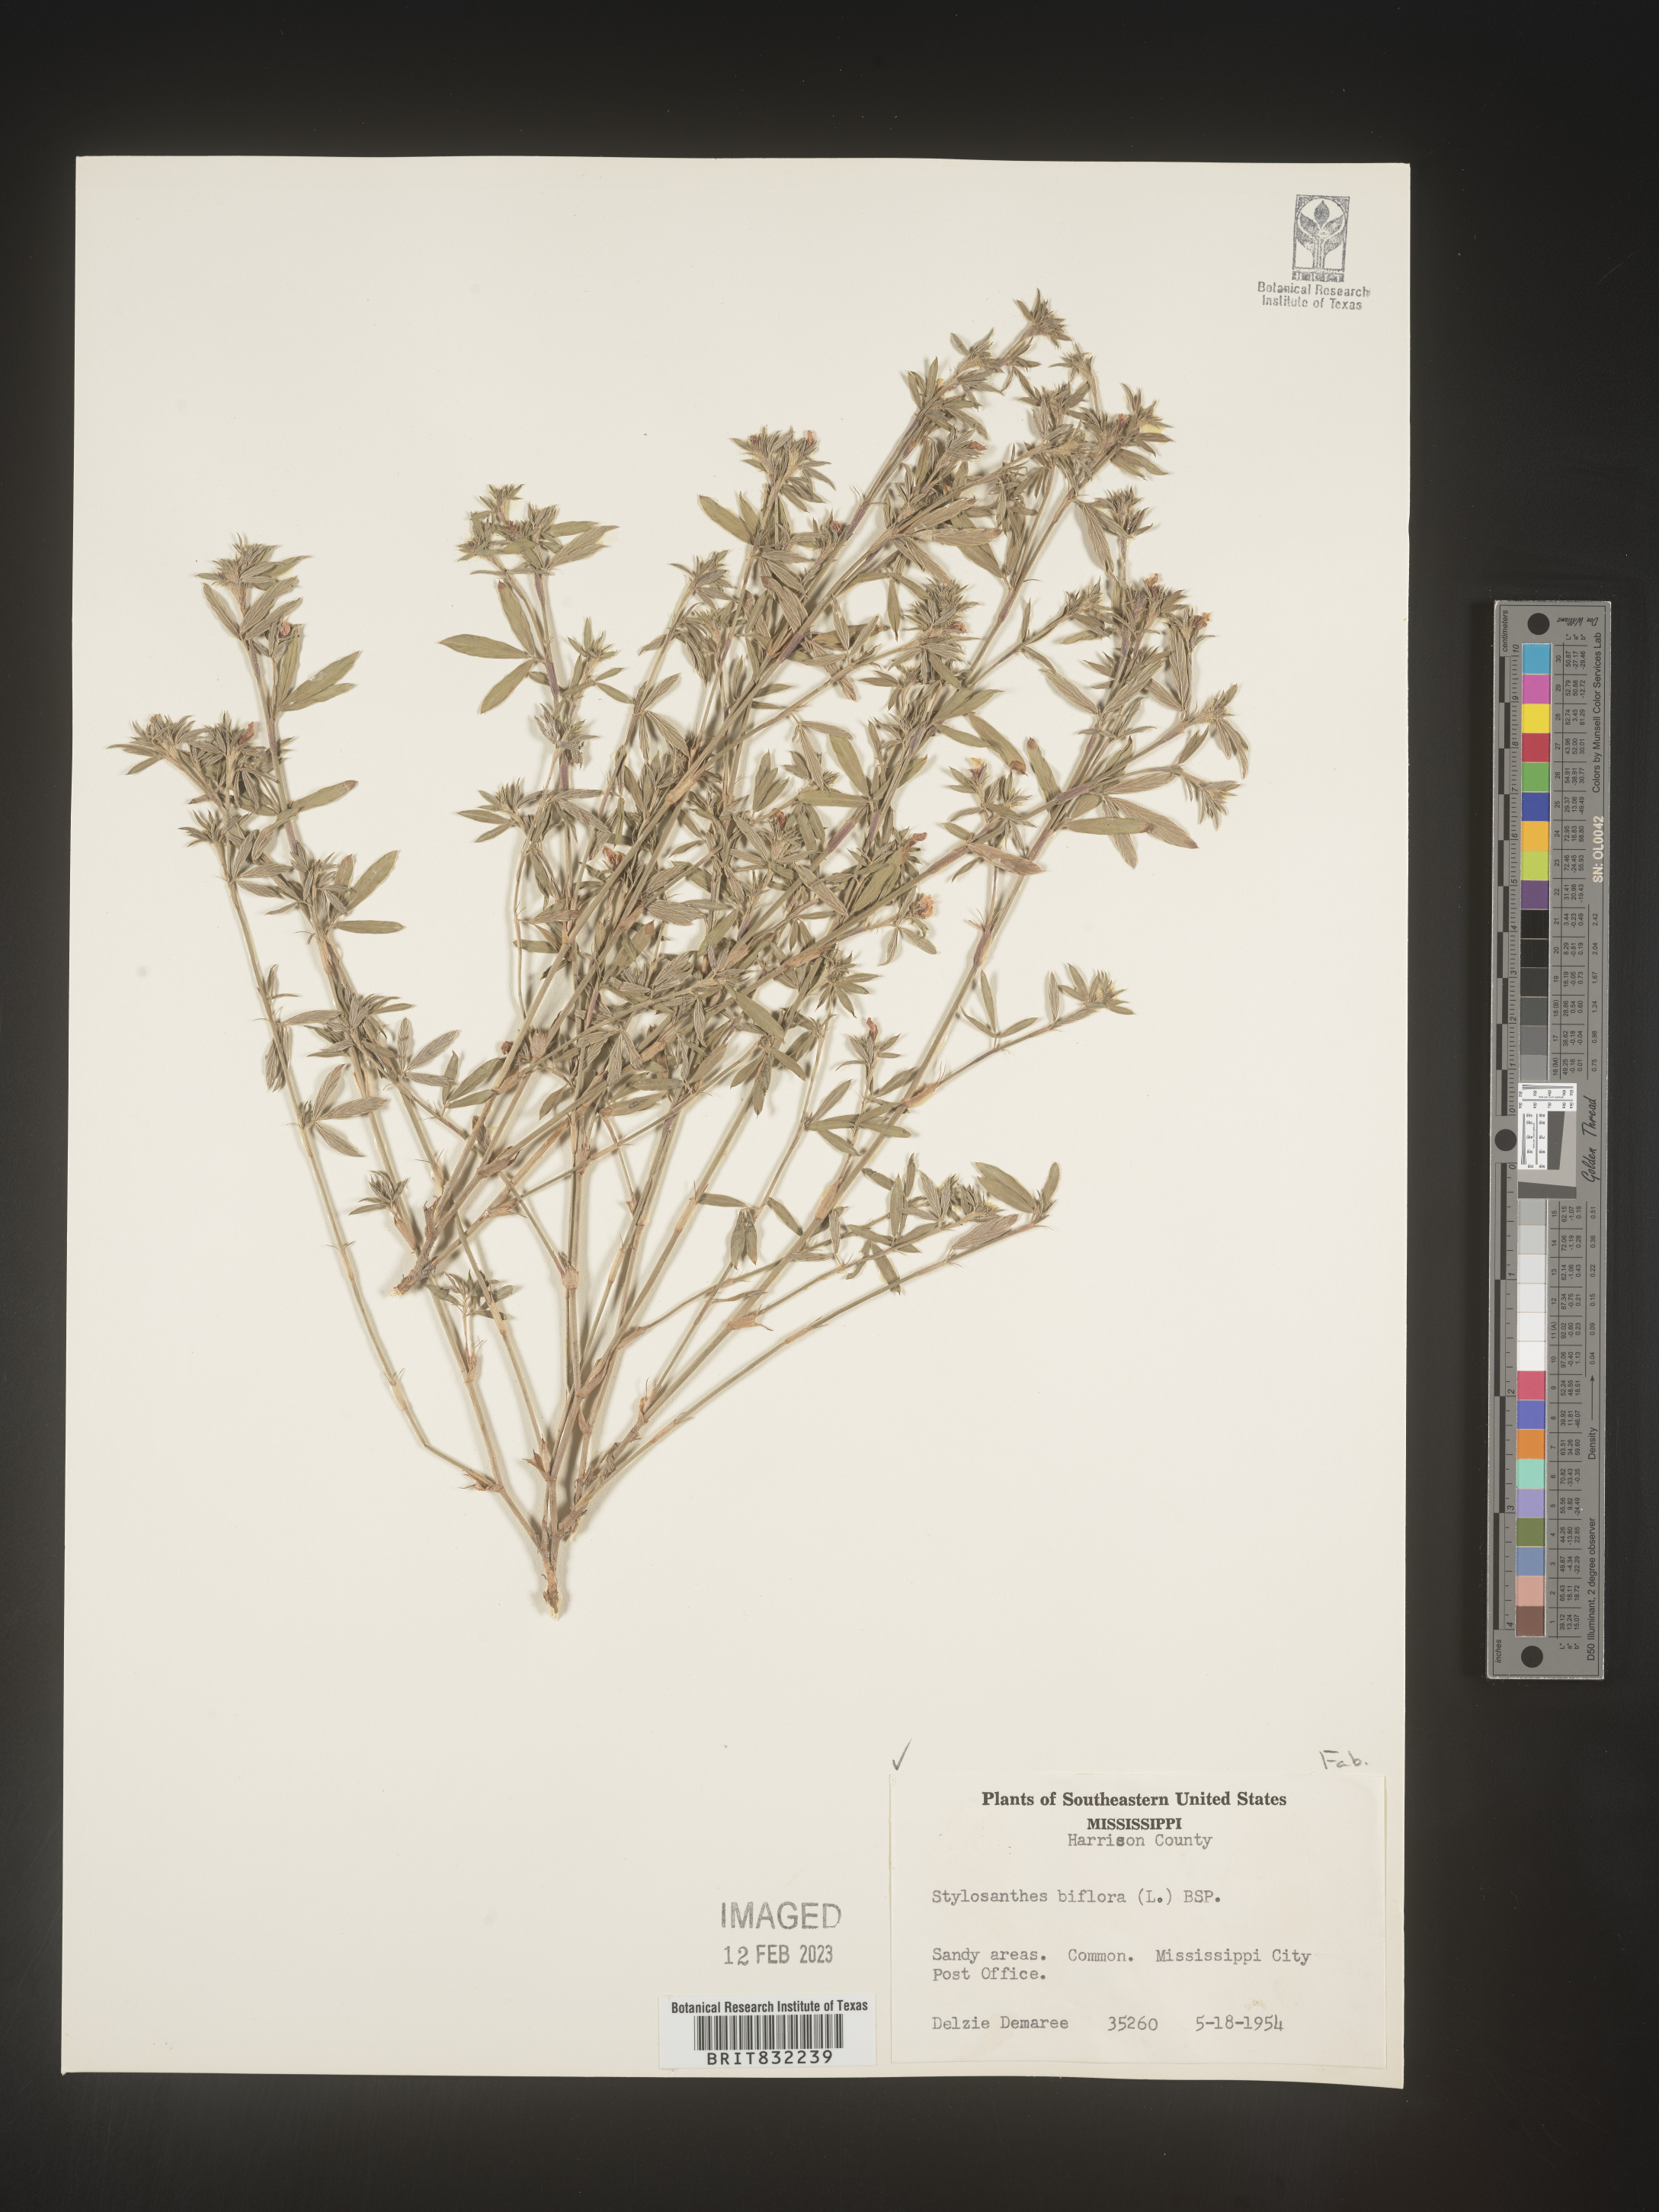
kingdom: Plantae
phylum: Tracheophyta
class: Magnoliopsida
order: Fabales
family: Fabaceae
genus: Stylosanthes
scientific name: Stylosanthes biflora
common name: Two-flower pencil-flower
